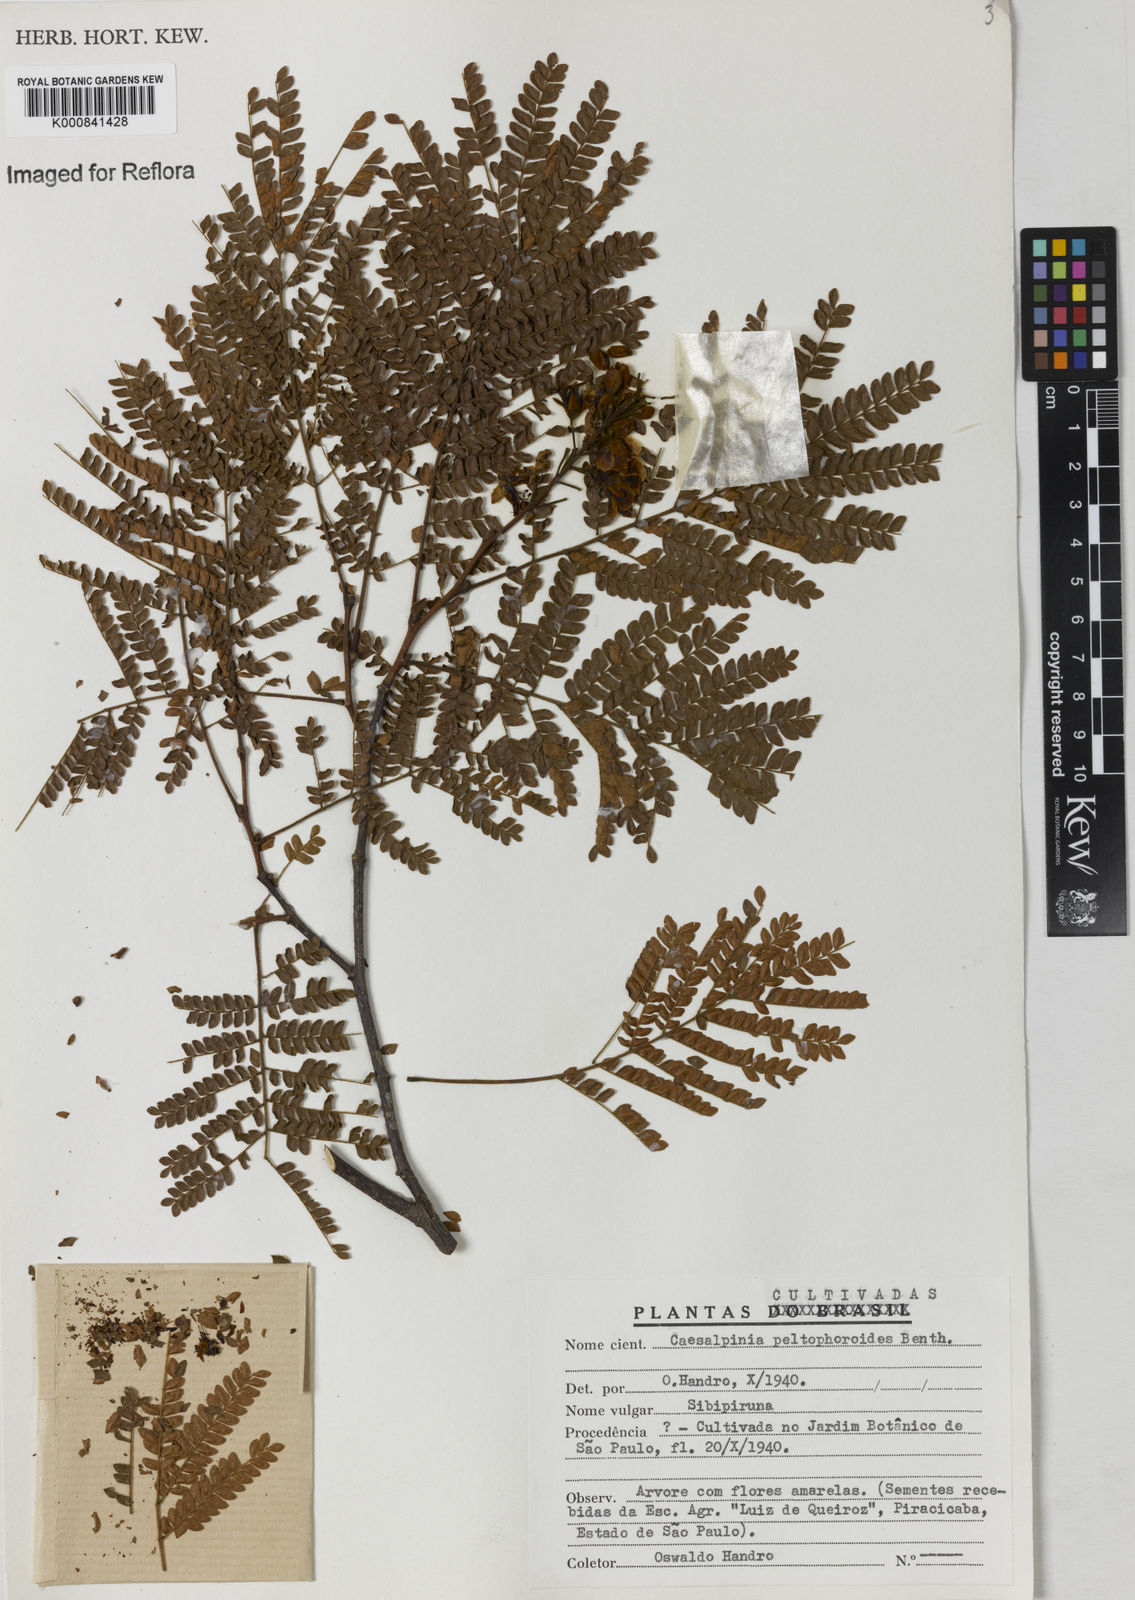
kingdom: Plantae
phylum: Tracheophyta
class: Magnoliopsida
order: Fabales
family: Fabaceae
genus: Cenostigma
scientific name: Cenostigma pluviosum
